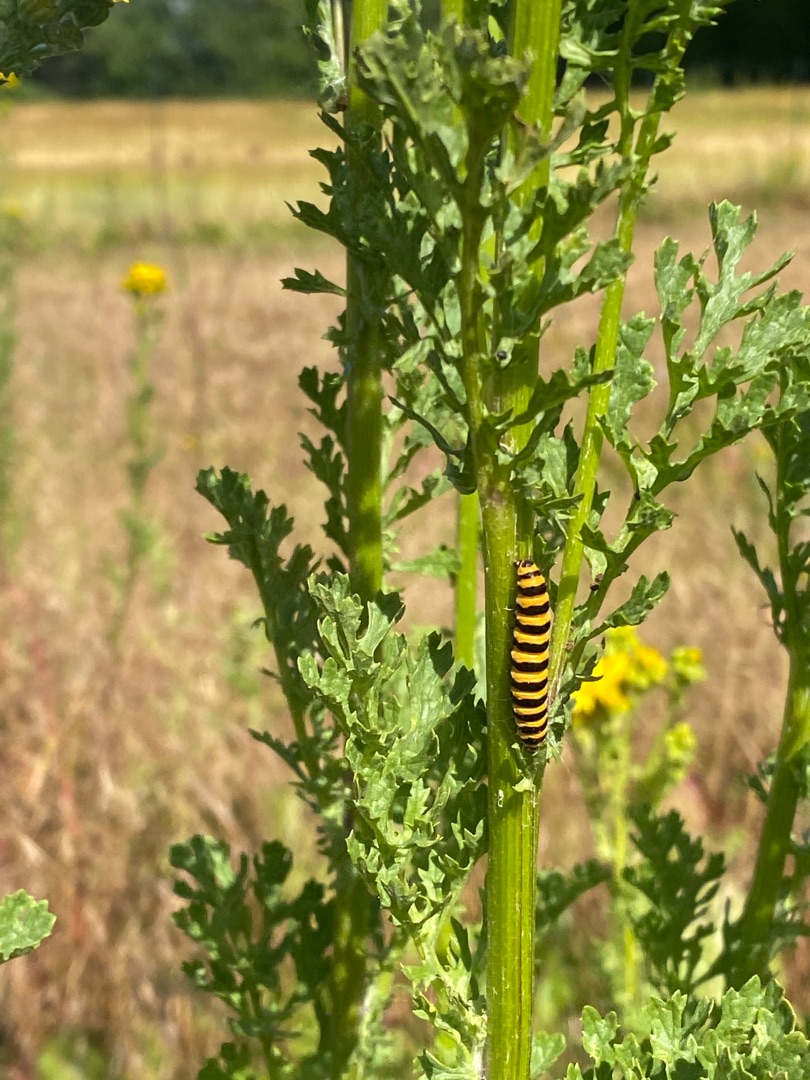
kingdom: Animalia
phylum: Arthropoda
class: Insecta
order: Lepidoptera
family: Erebidae
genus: Tyria
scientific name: Tyria jacobaeae
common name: Blodplet
